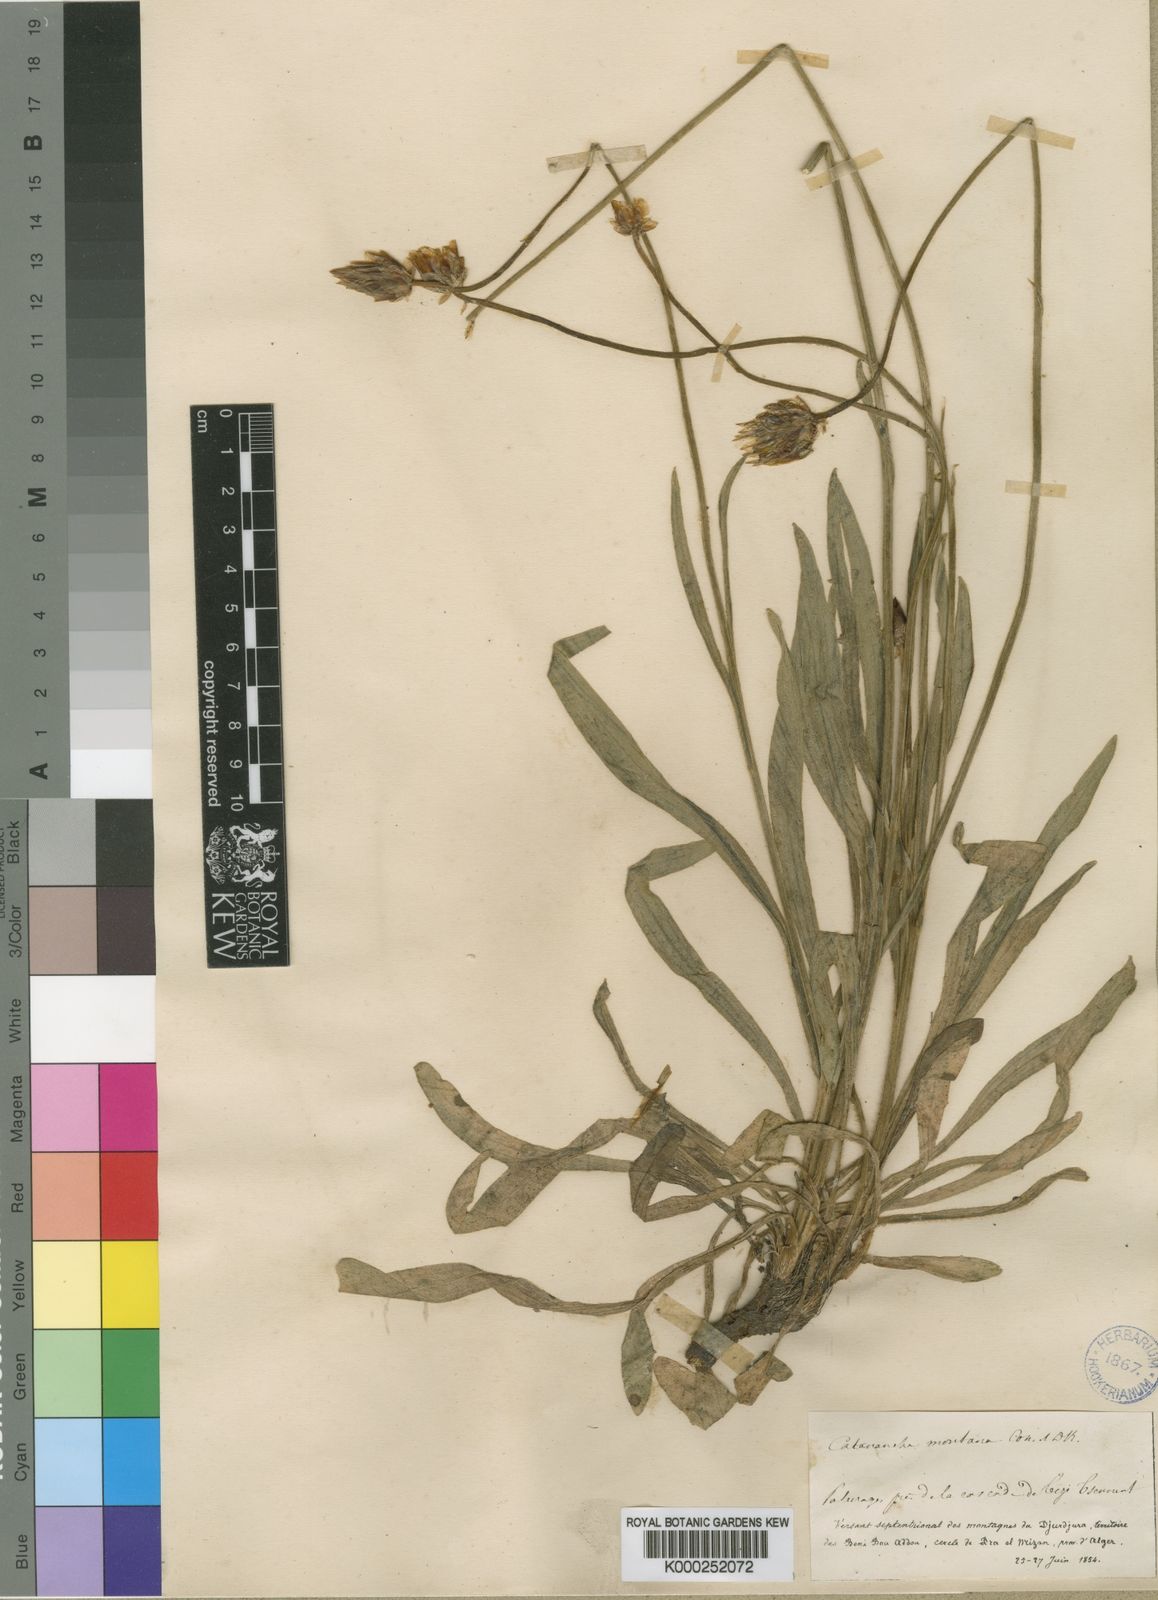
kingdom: Plantae
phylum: Tracheophyta
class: Magnoliopsida
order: Asterales
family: Asteraceae
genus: Catananche
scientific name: Catananche montana
